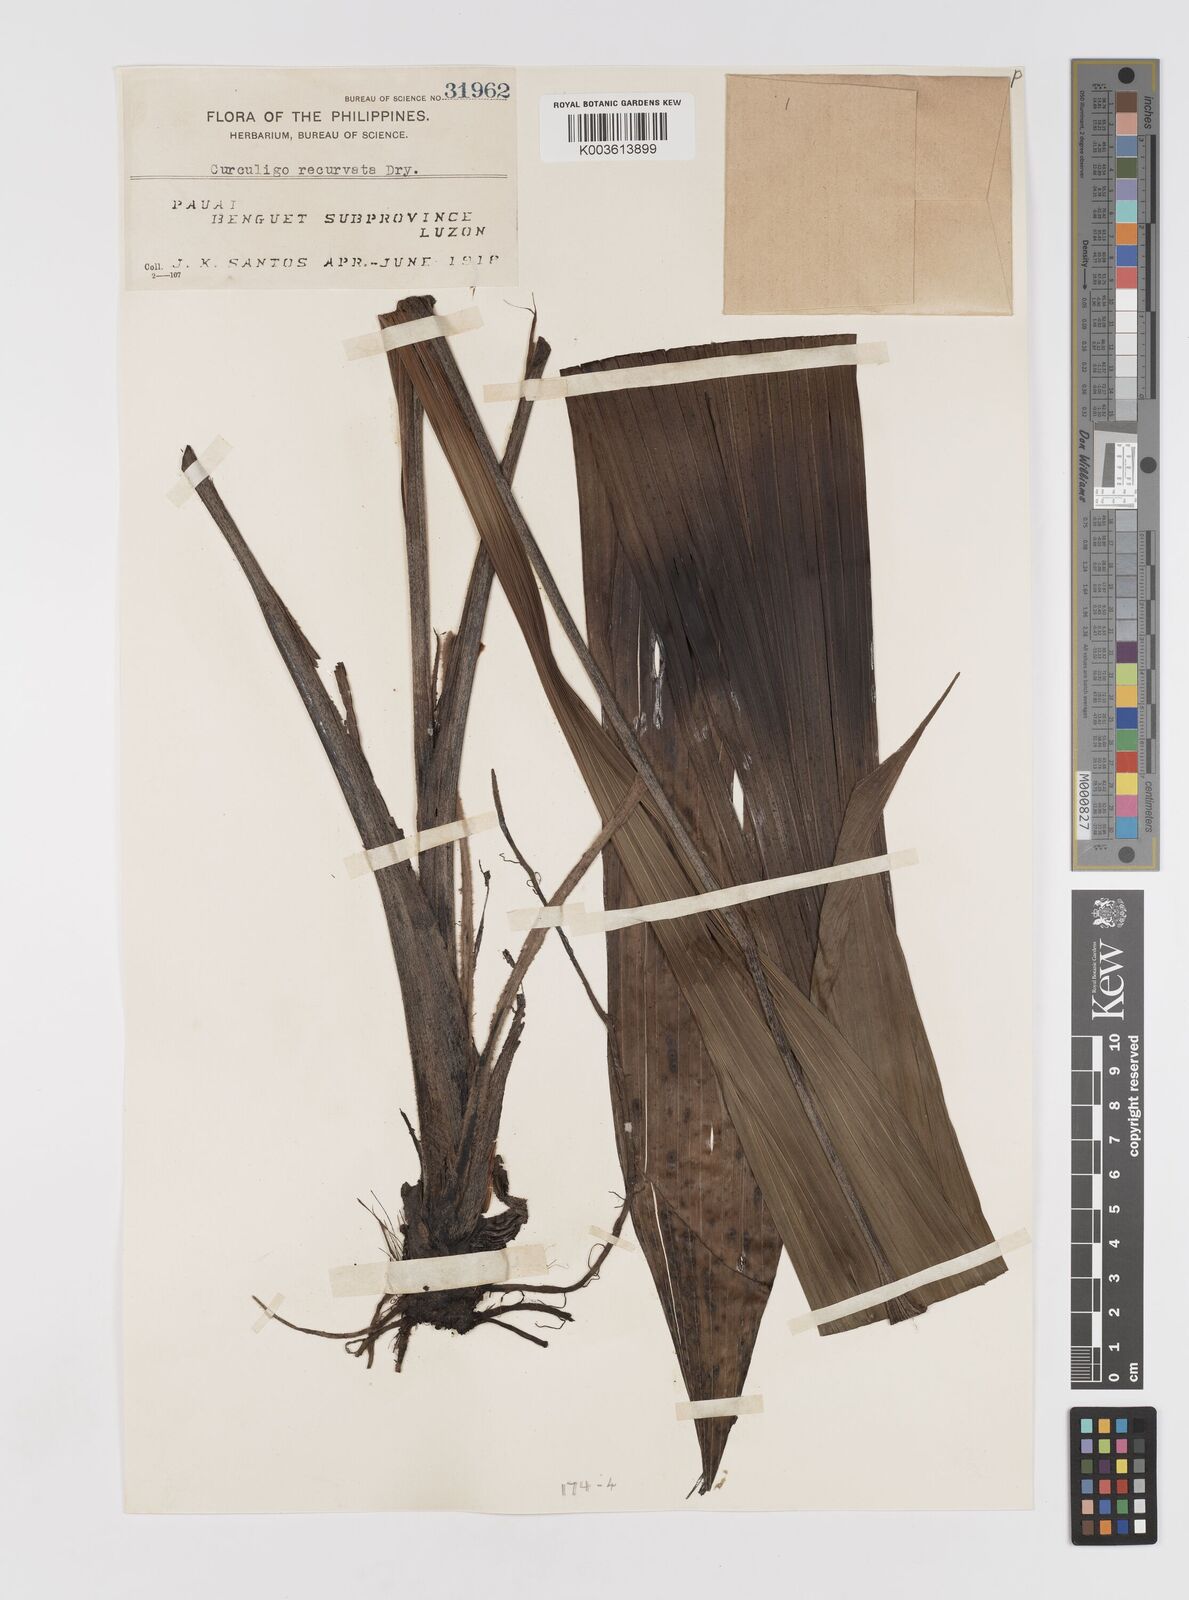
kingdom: Plantae
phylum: Tracheophyta
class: Liliopsida
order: Asparagales
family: Hypoxidaceae
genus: Curculigo
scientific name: Curculigo capitulata
